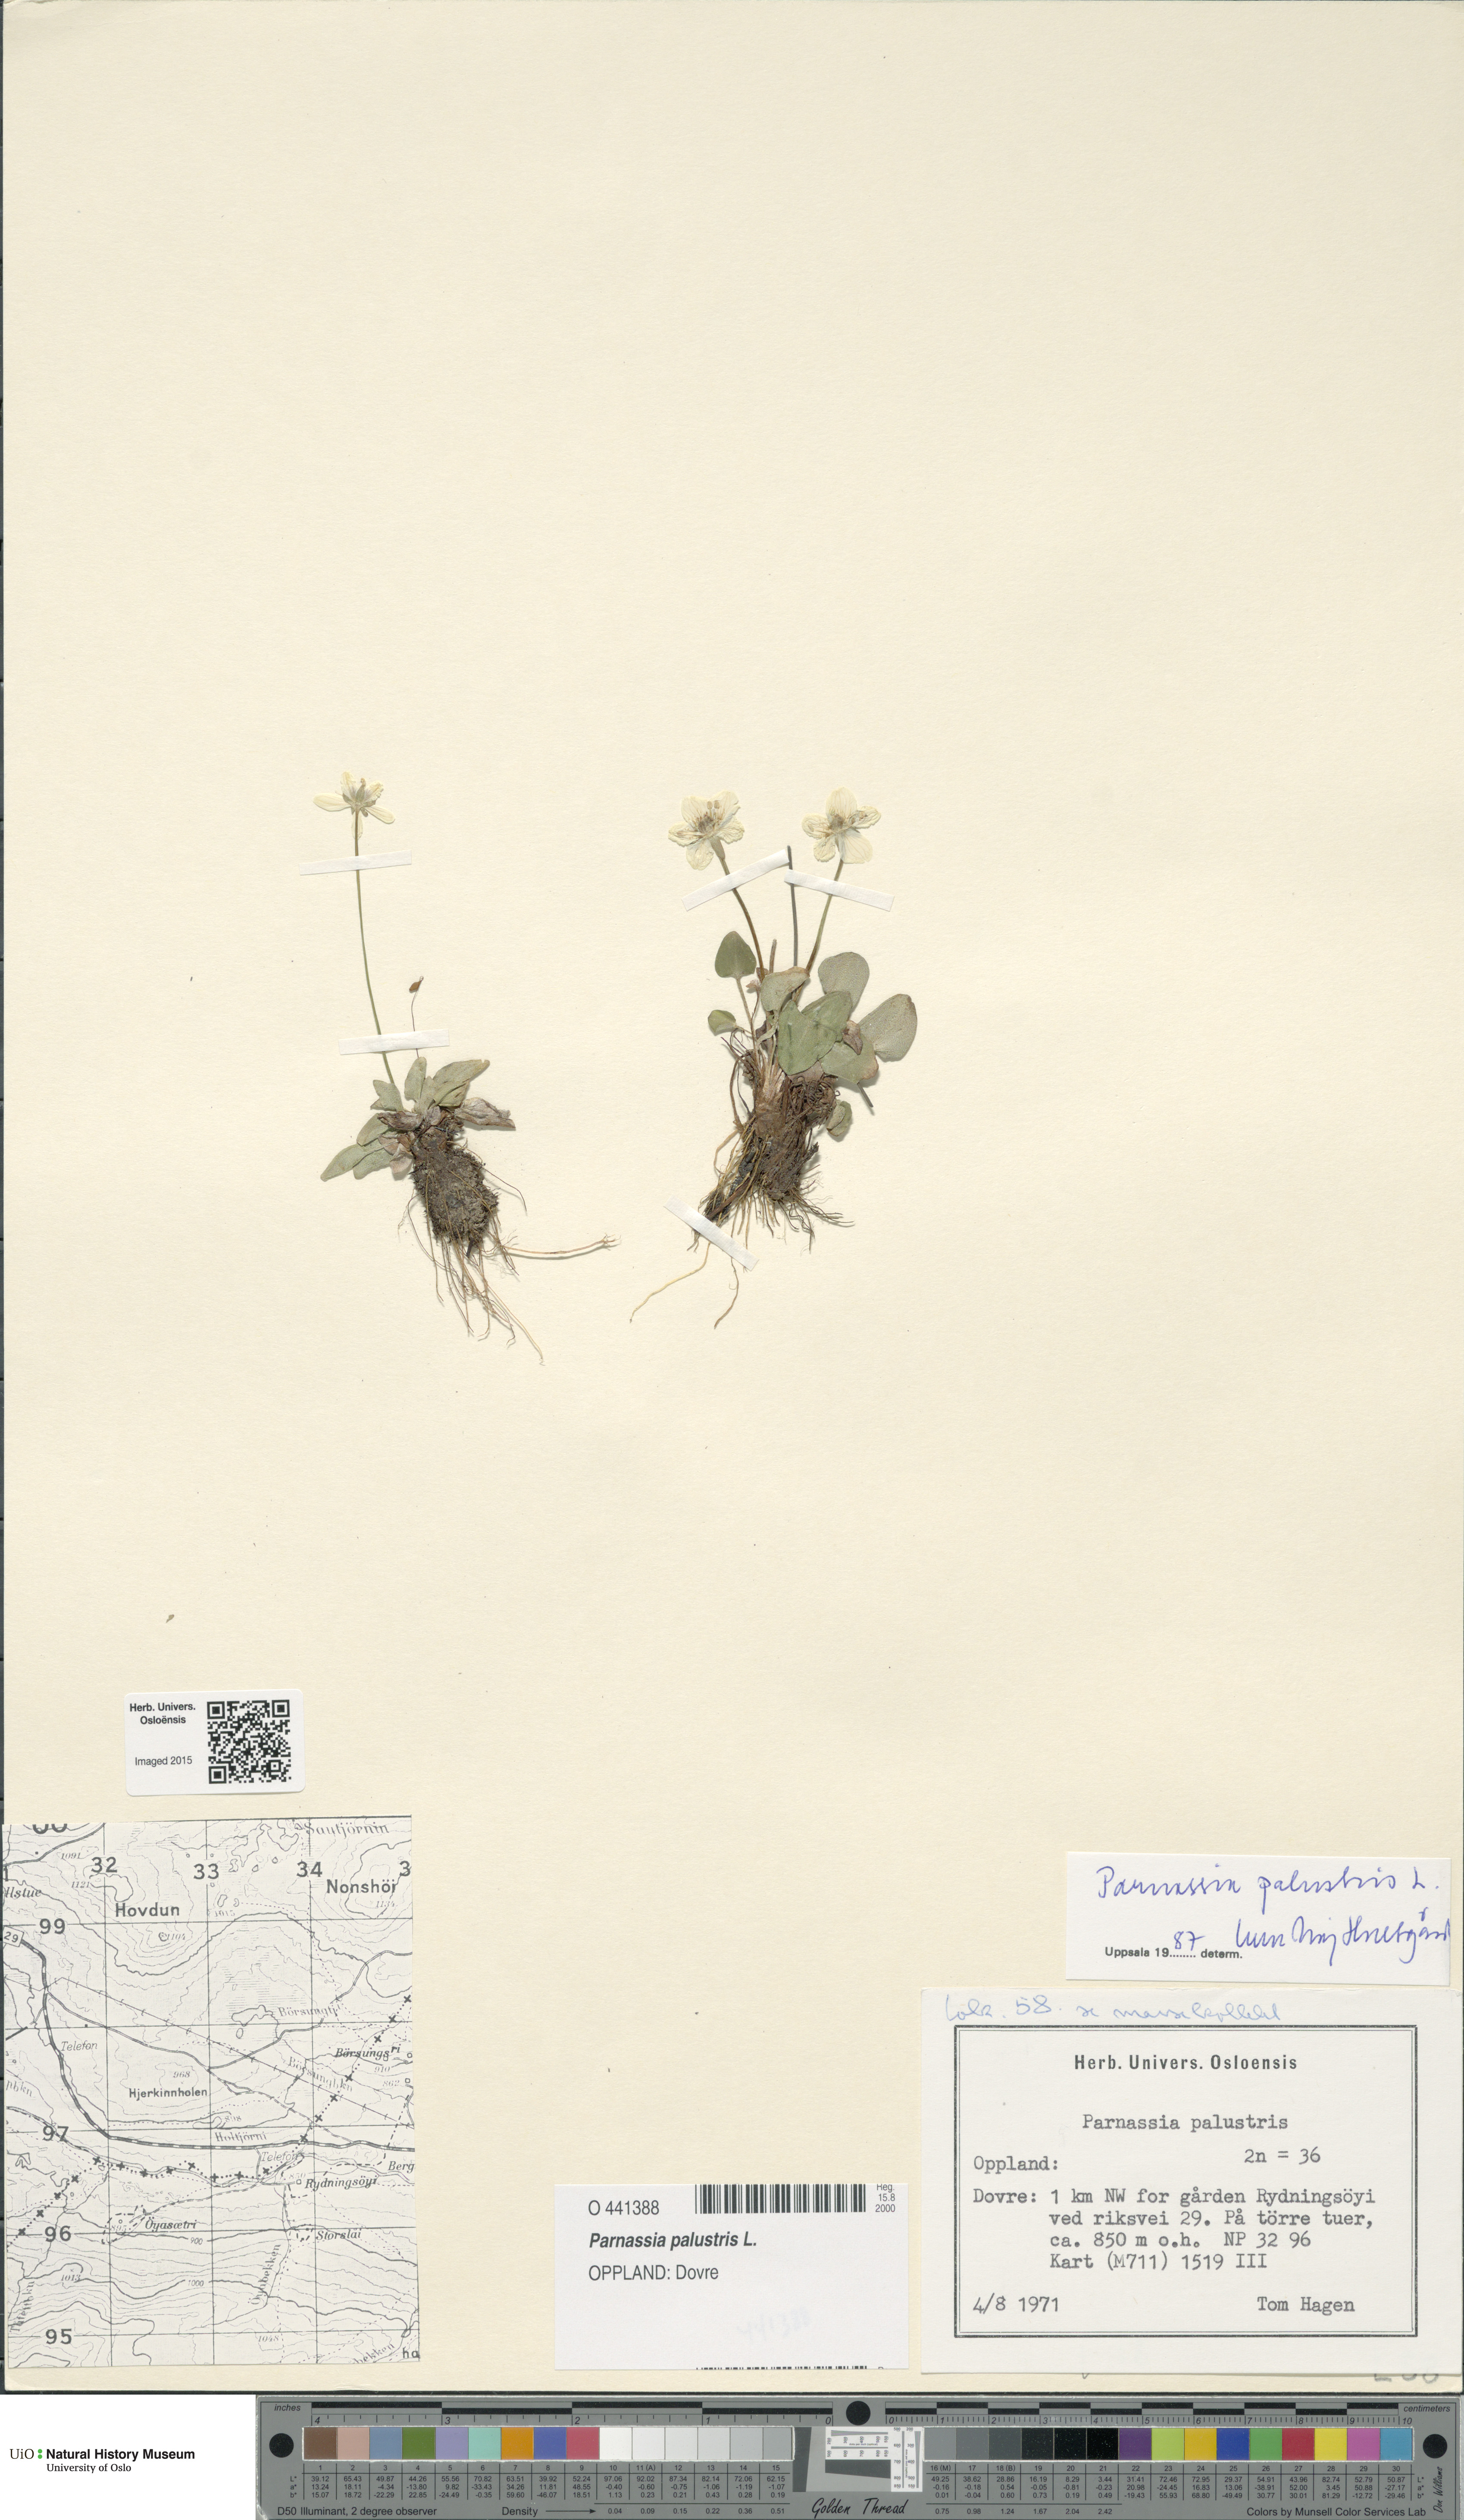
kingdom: Plantae
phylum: Tracheophyta
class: Magnoliopsida
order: Celastrales
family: Parnassiaceae
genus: Parnassia
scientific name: Parnassia palustris
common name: Grass-of-parnassus
